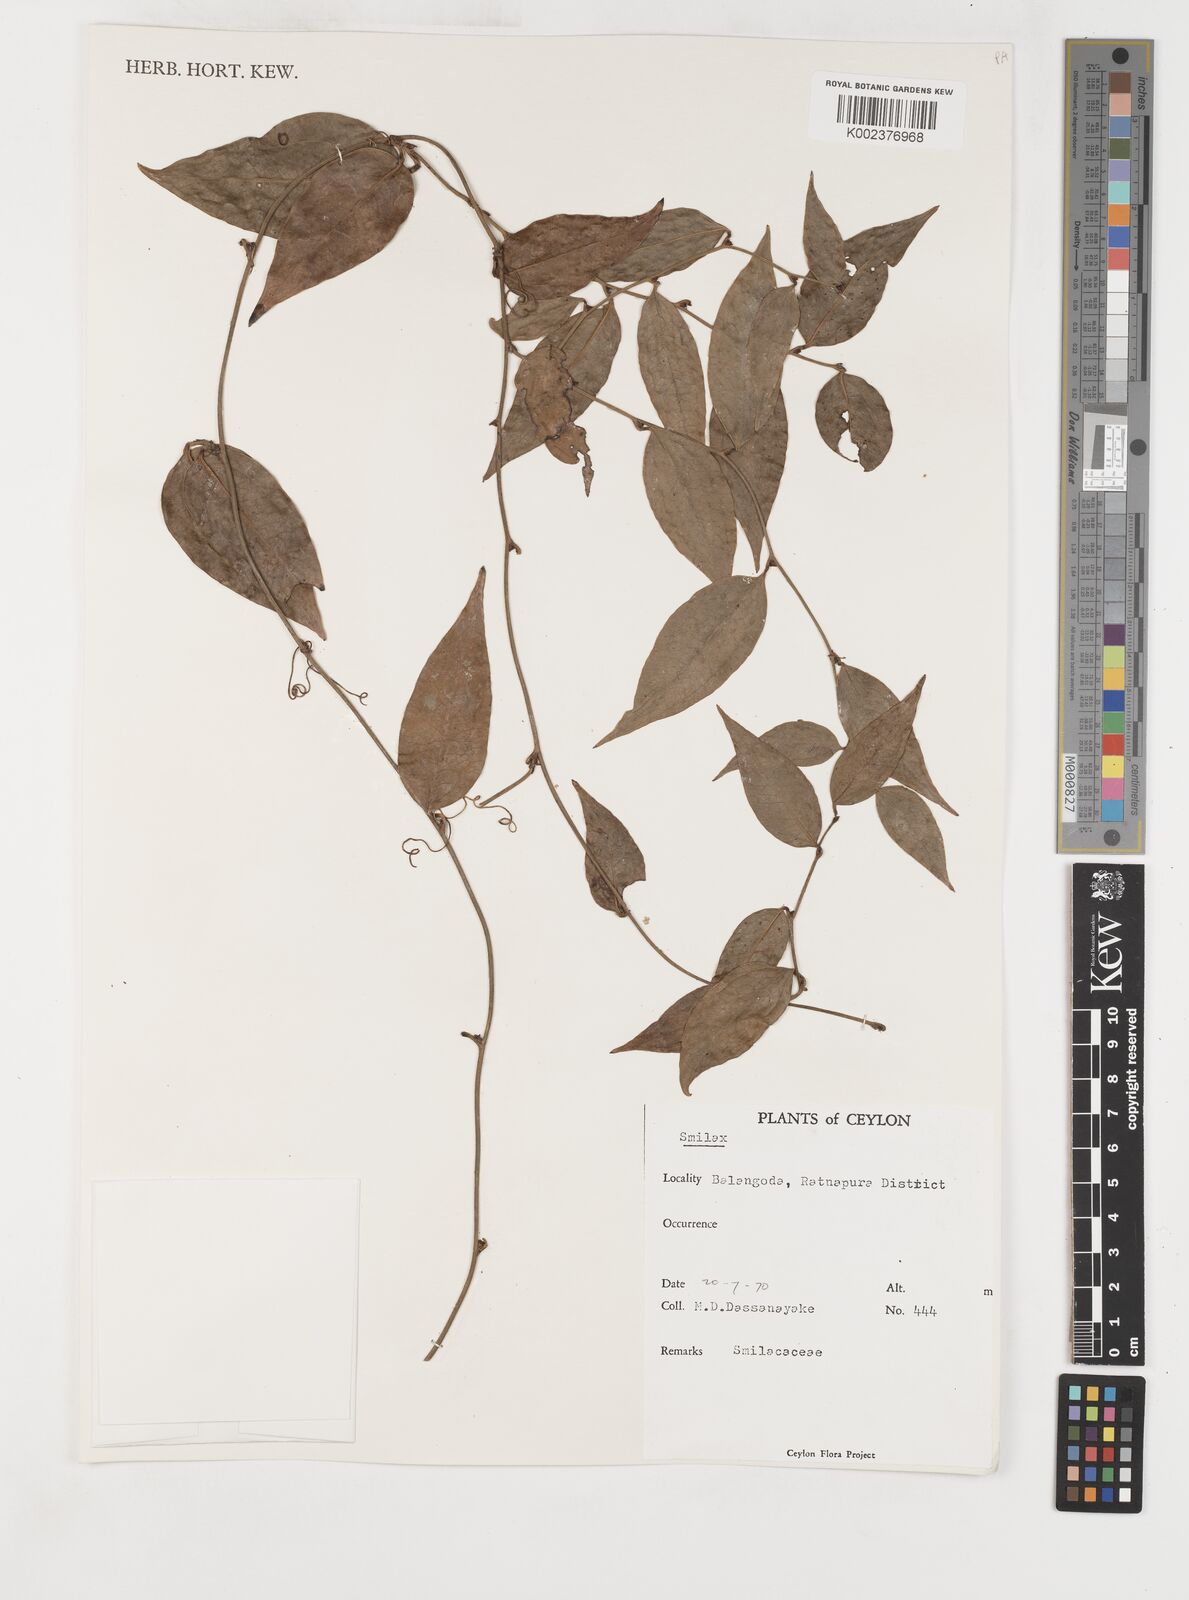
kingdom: Plantae
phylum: Tracheophyta
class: Liliopsida
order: Liliales
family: Smilacaceae
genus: Smilax
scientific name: Smilax
